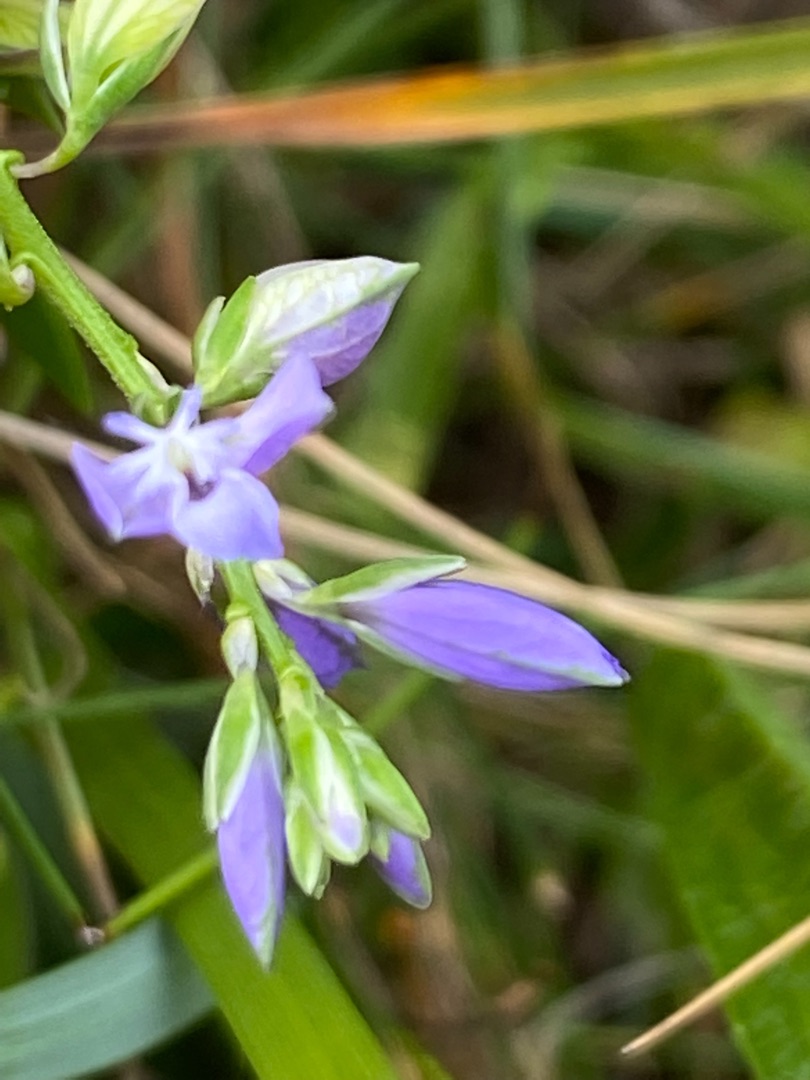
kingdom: Plantae
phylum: Tracheophyta
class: Magnoliopsida
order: Fabales
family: Polygalaceae
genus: Polygala
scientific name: Polygala vulgaris
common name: Almindelig mælkeurt
